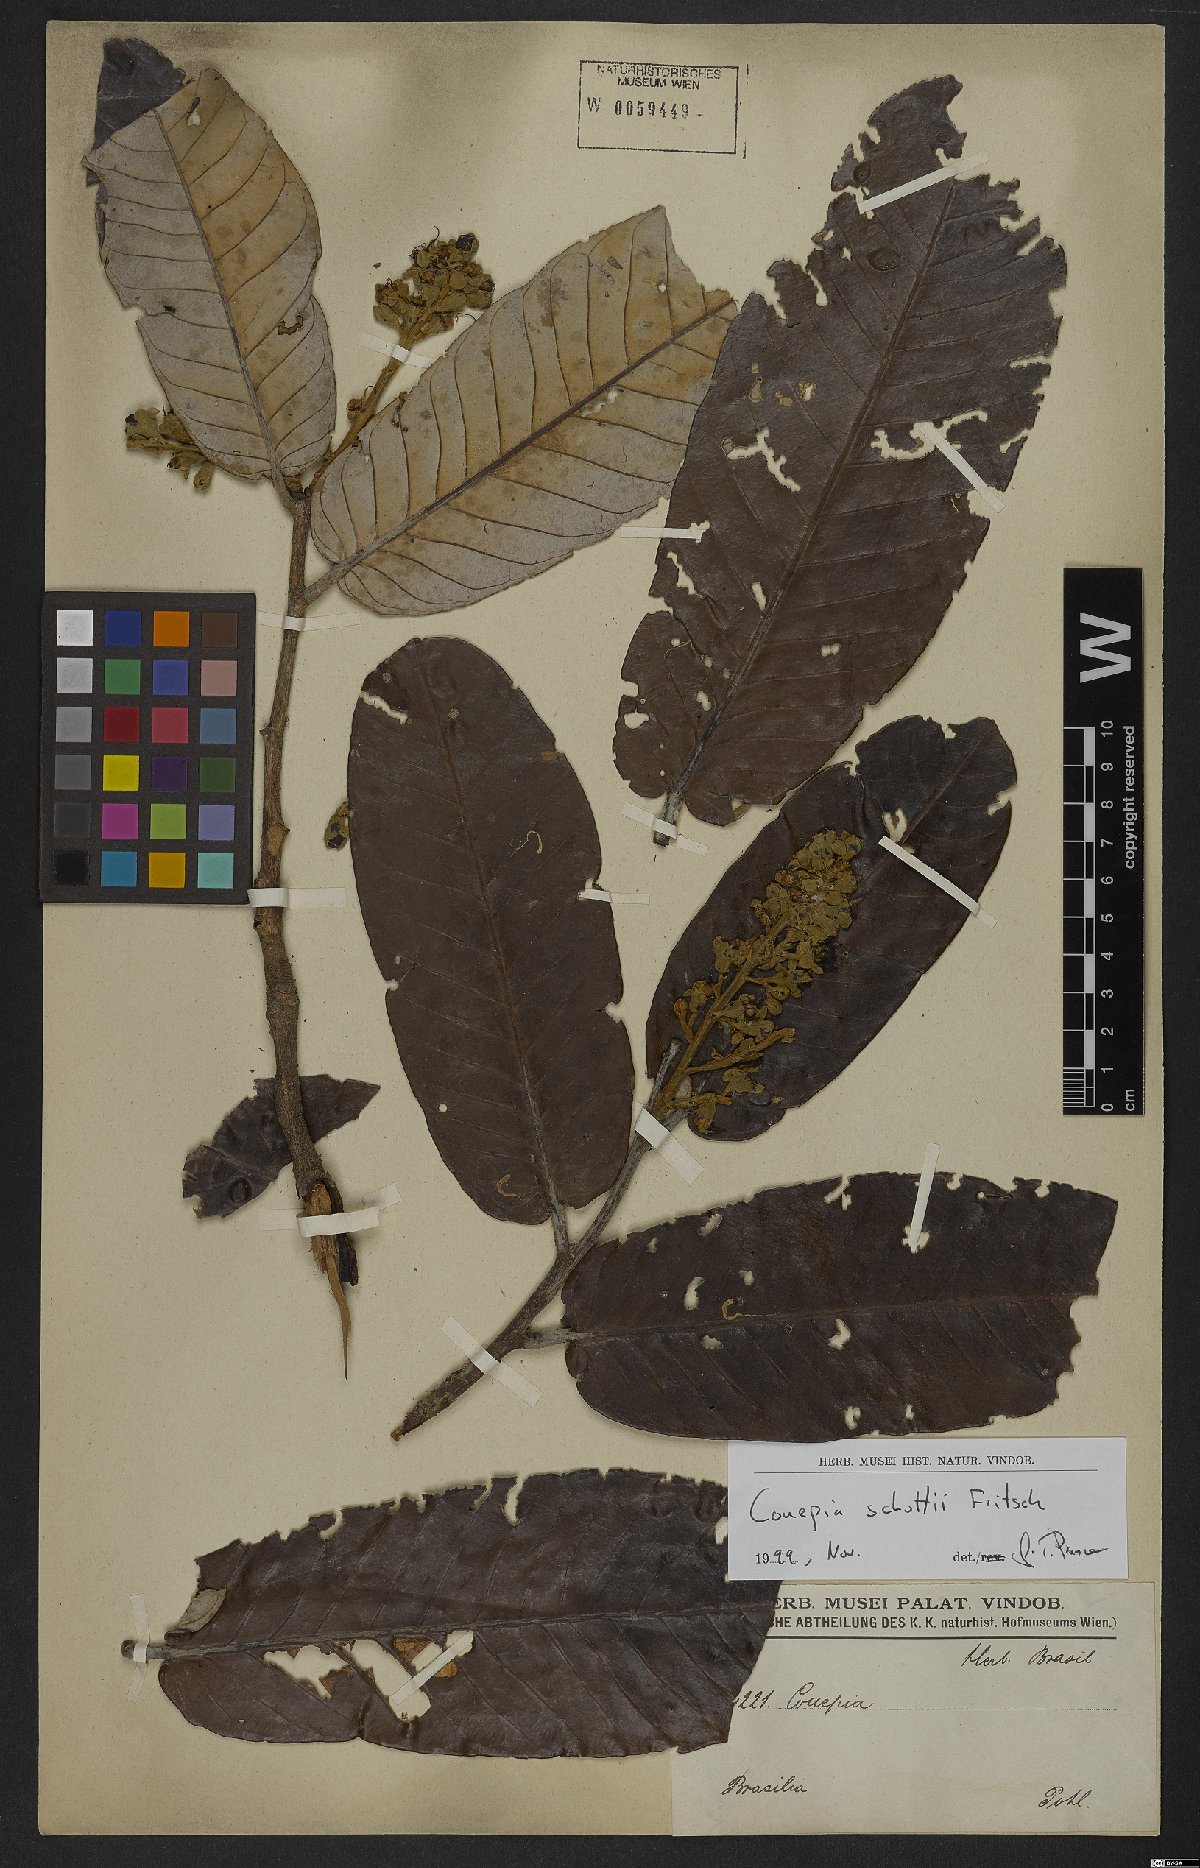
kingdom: Plantae
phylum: Tracheophyta
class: Magnoliopsida
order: Malpighiales
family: Chrysobalanaceae
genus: Couepia
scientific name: Couepia schottii
